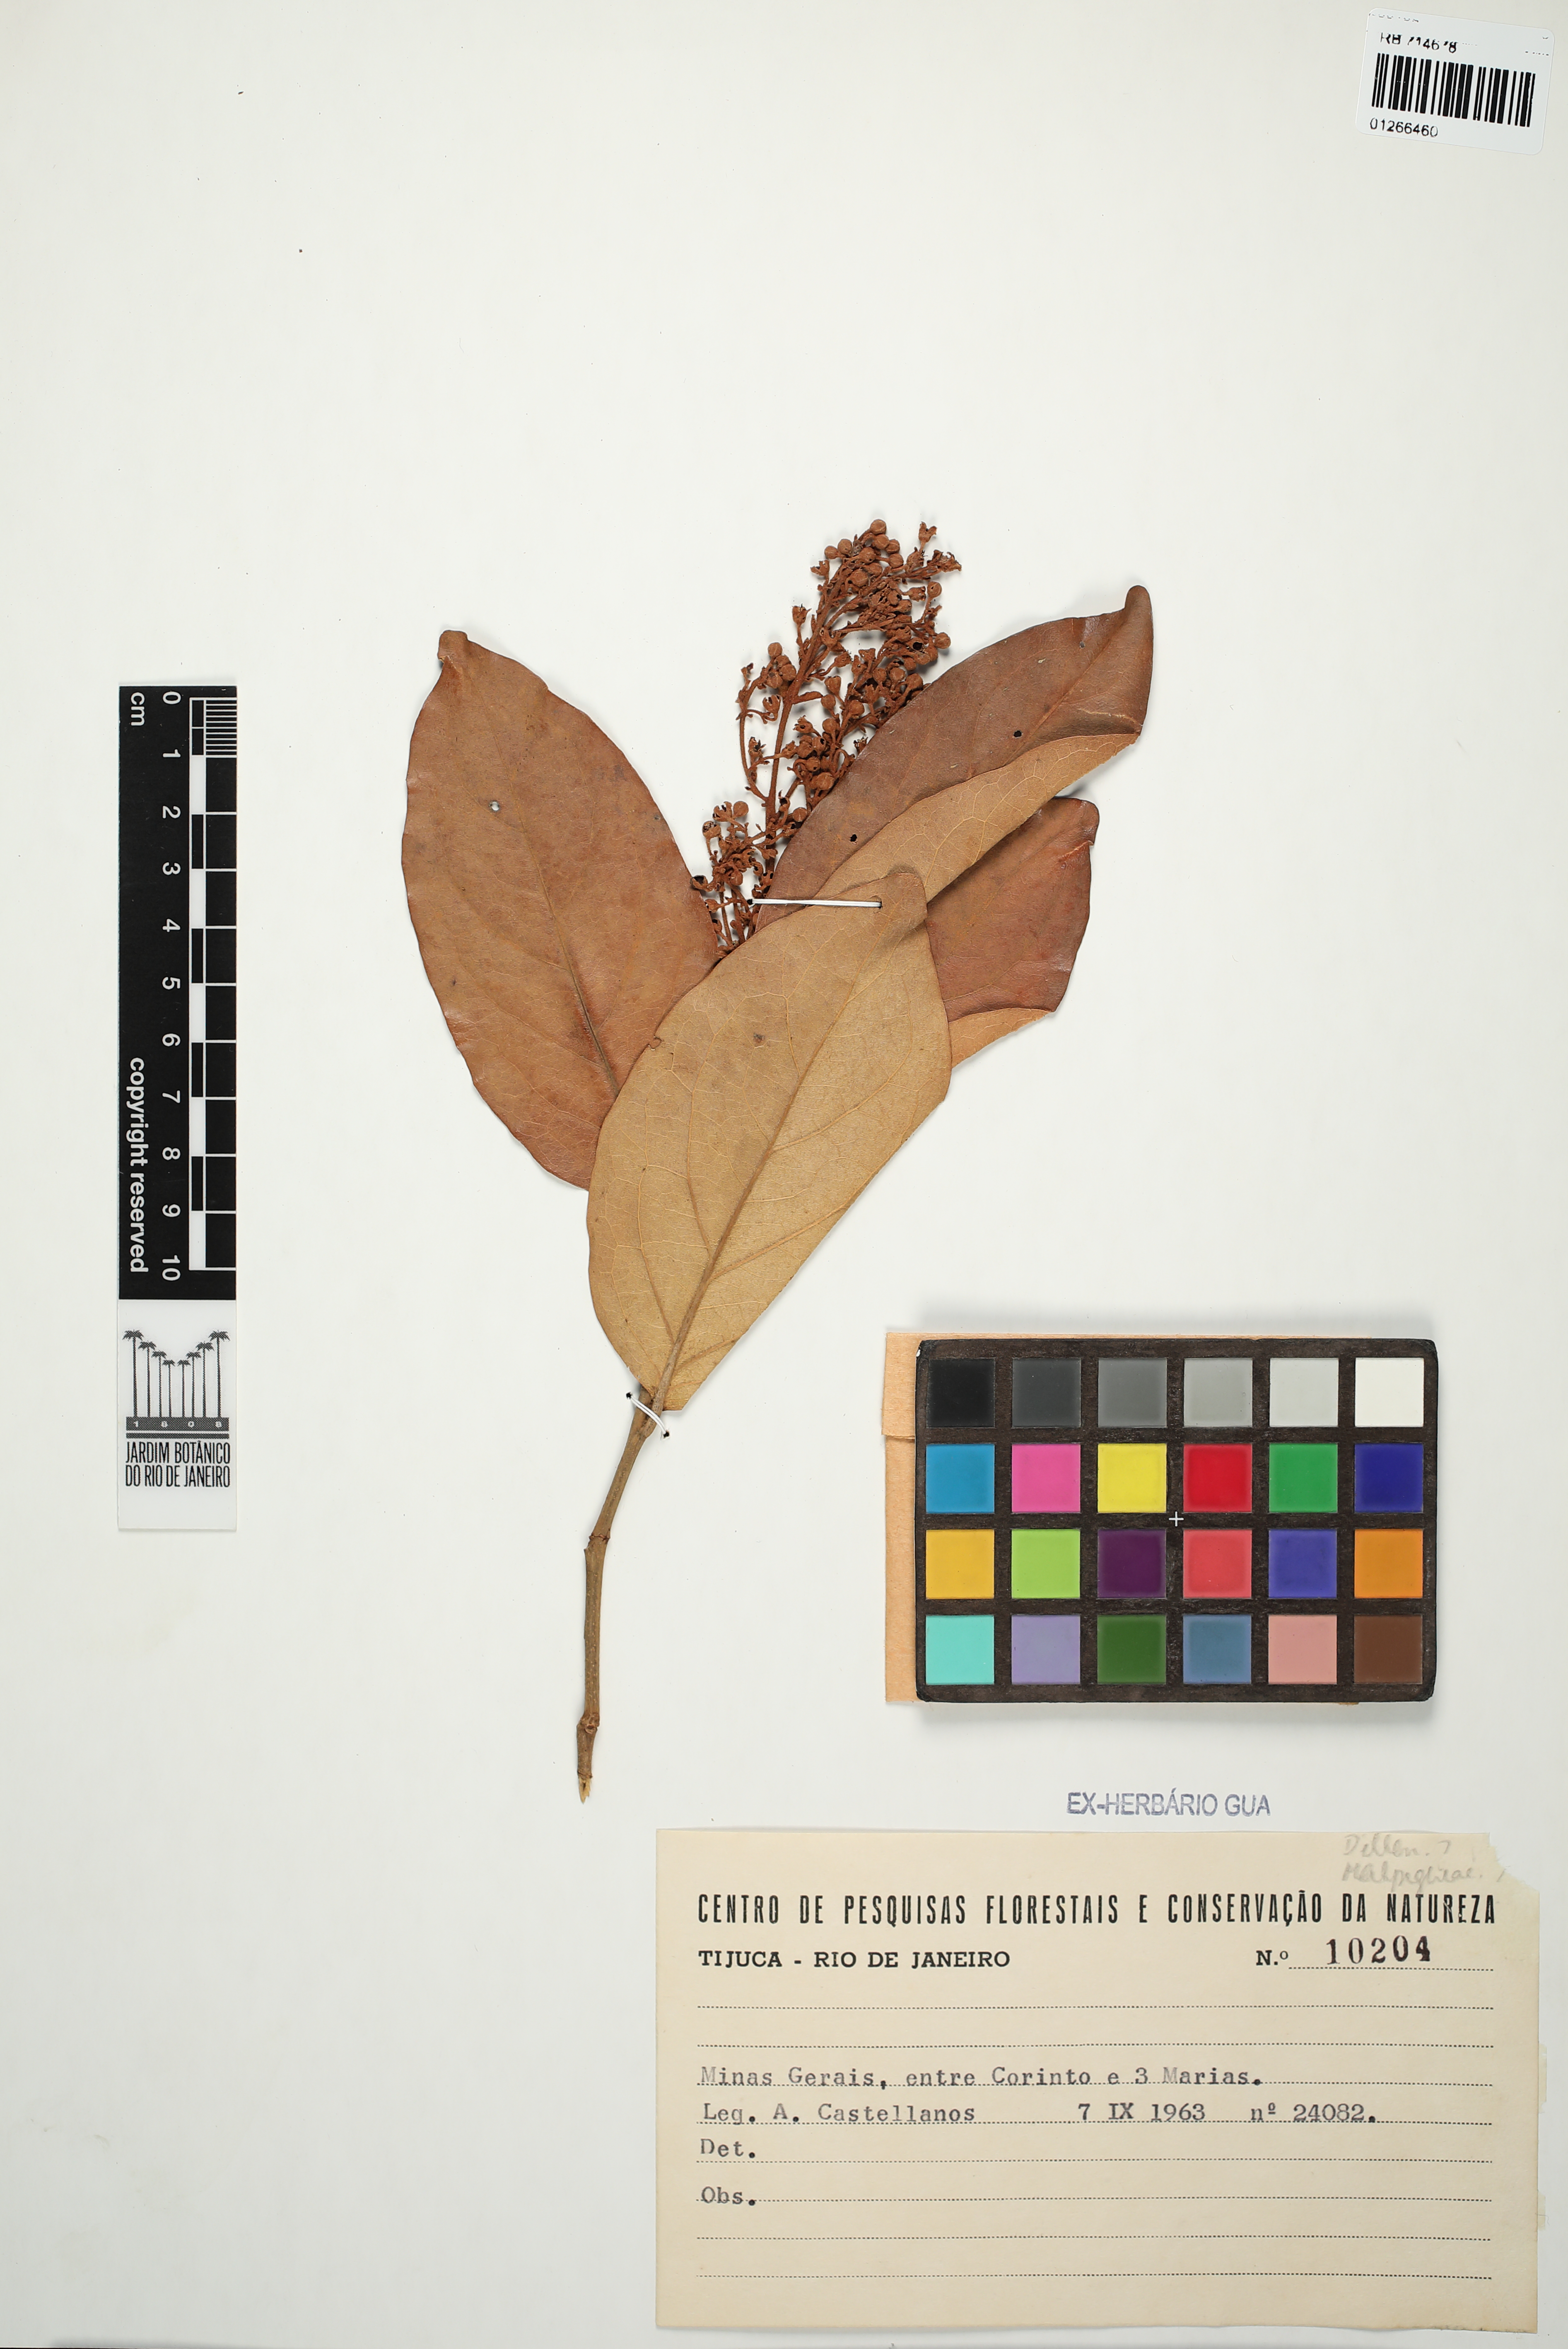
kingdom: Plantae
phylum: Tracheophyta
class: Magnoliopsida
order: Dilleniales
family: Dilleniaceae
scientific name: Dilleniaceae
